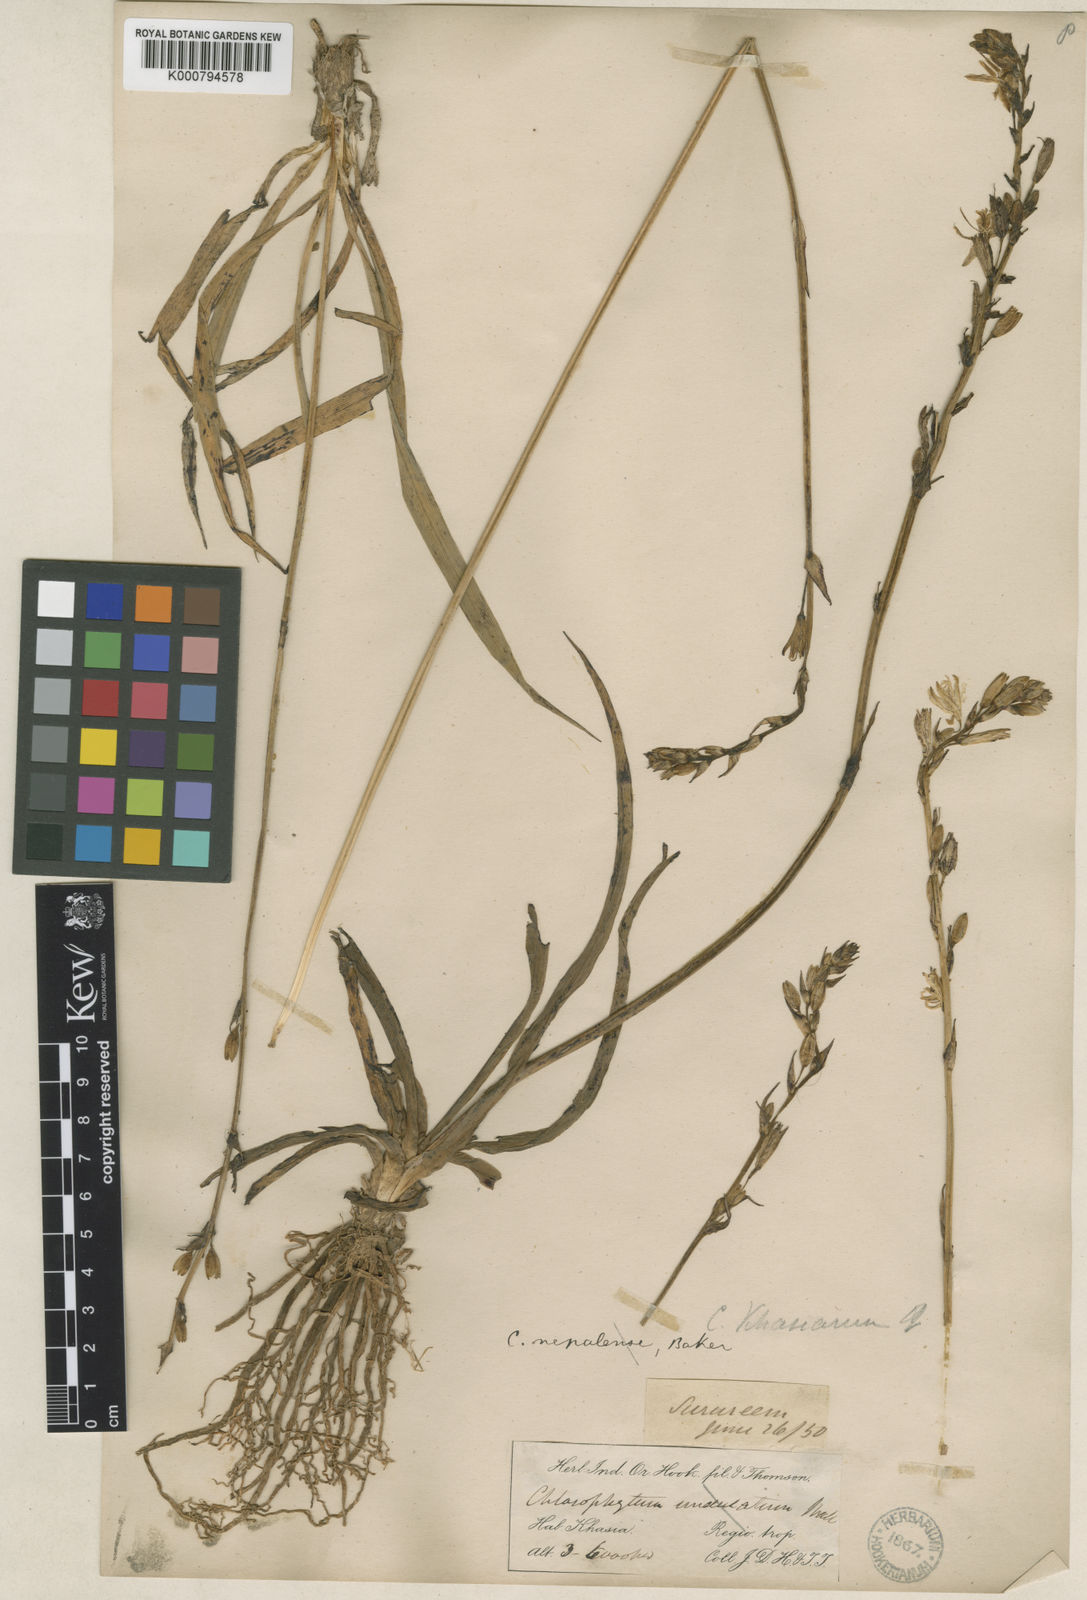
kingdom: Plantae
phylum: Tracheophyta
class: Liliopsida
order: Asparagales
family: Asparagaceae
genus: Chlorophytum
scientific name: Chlorophytum nepalense
